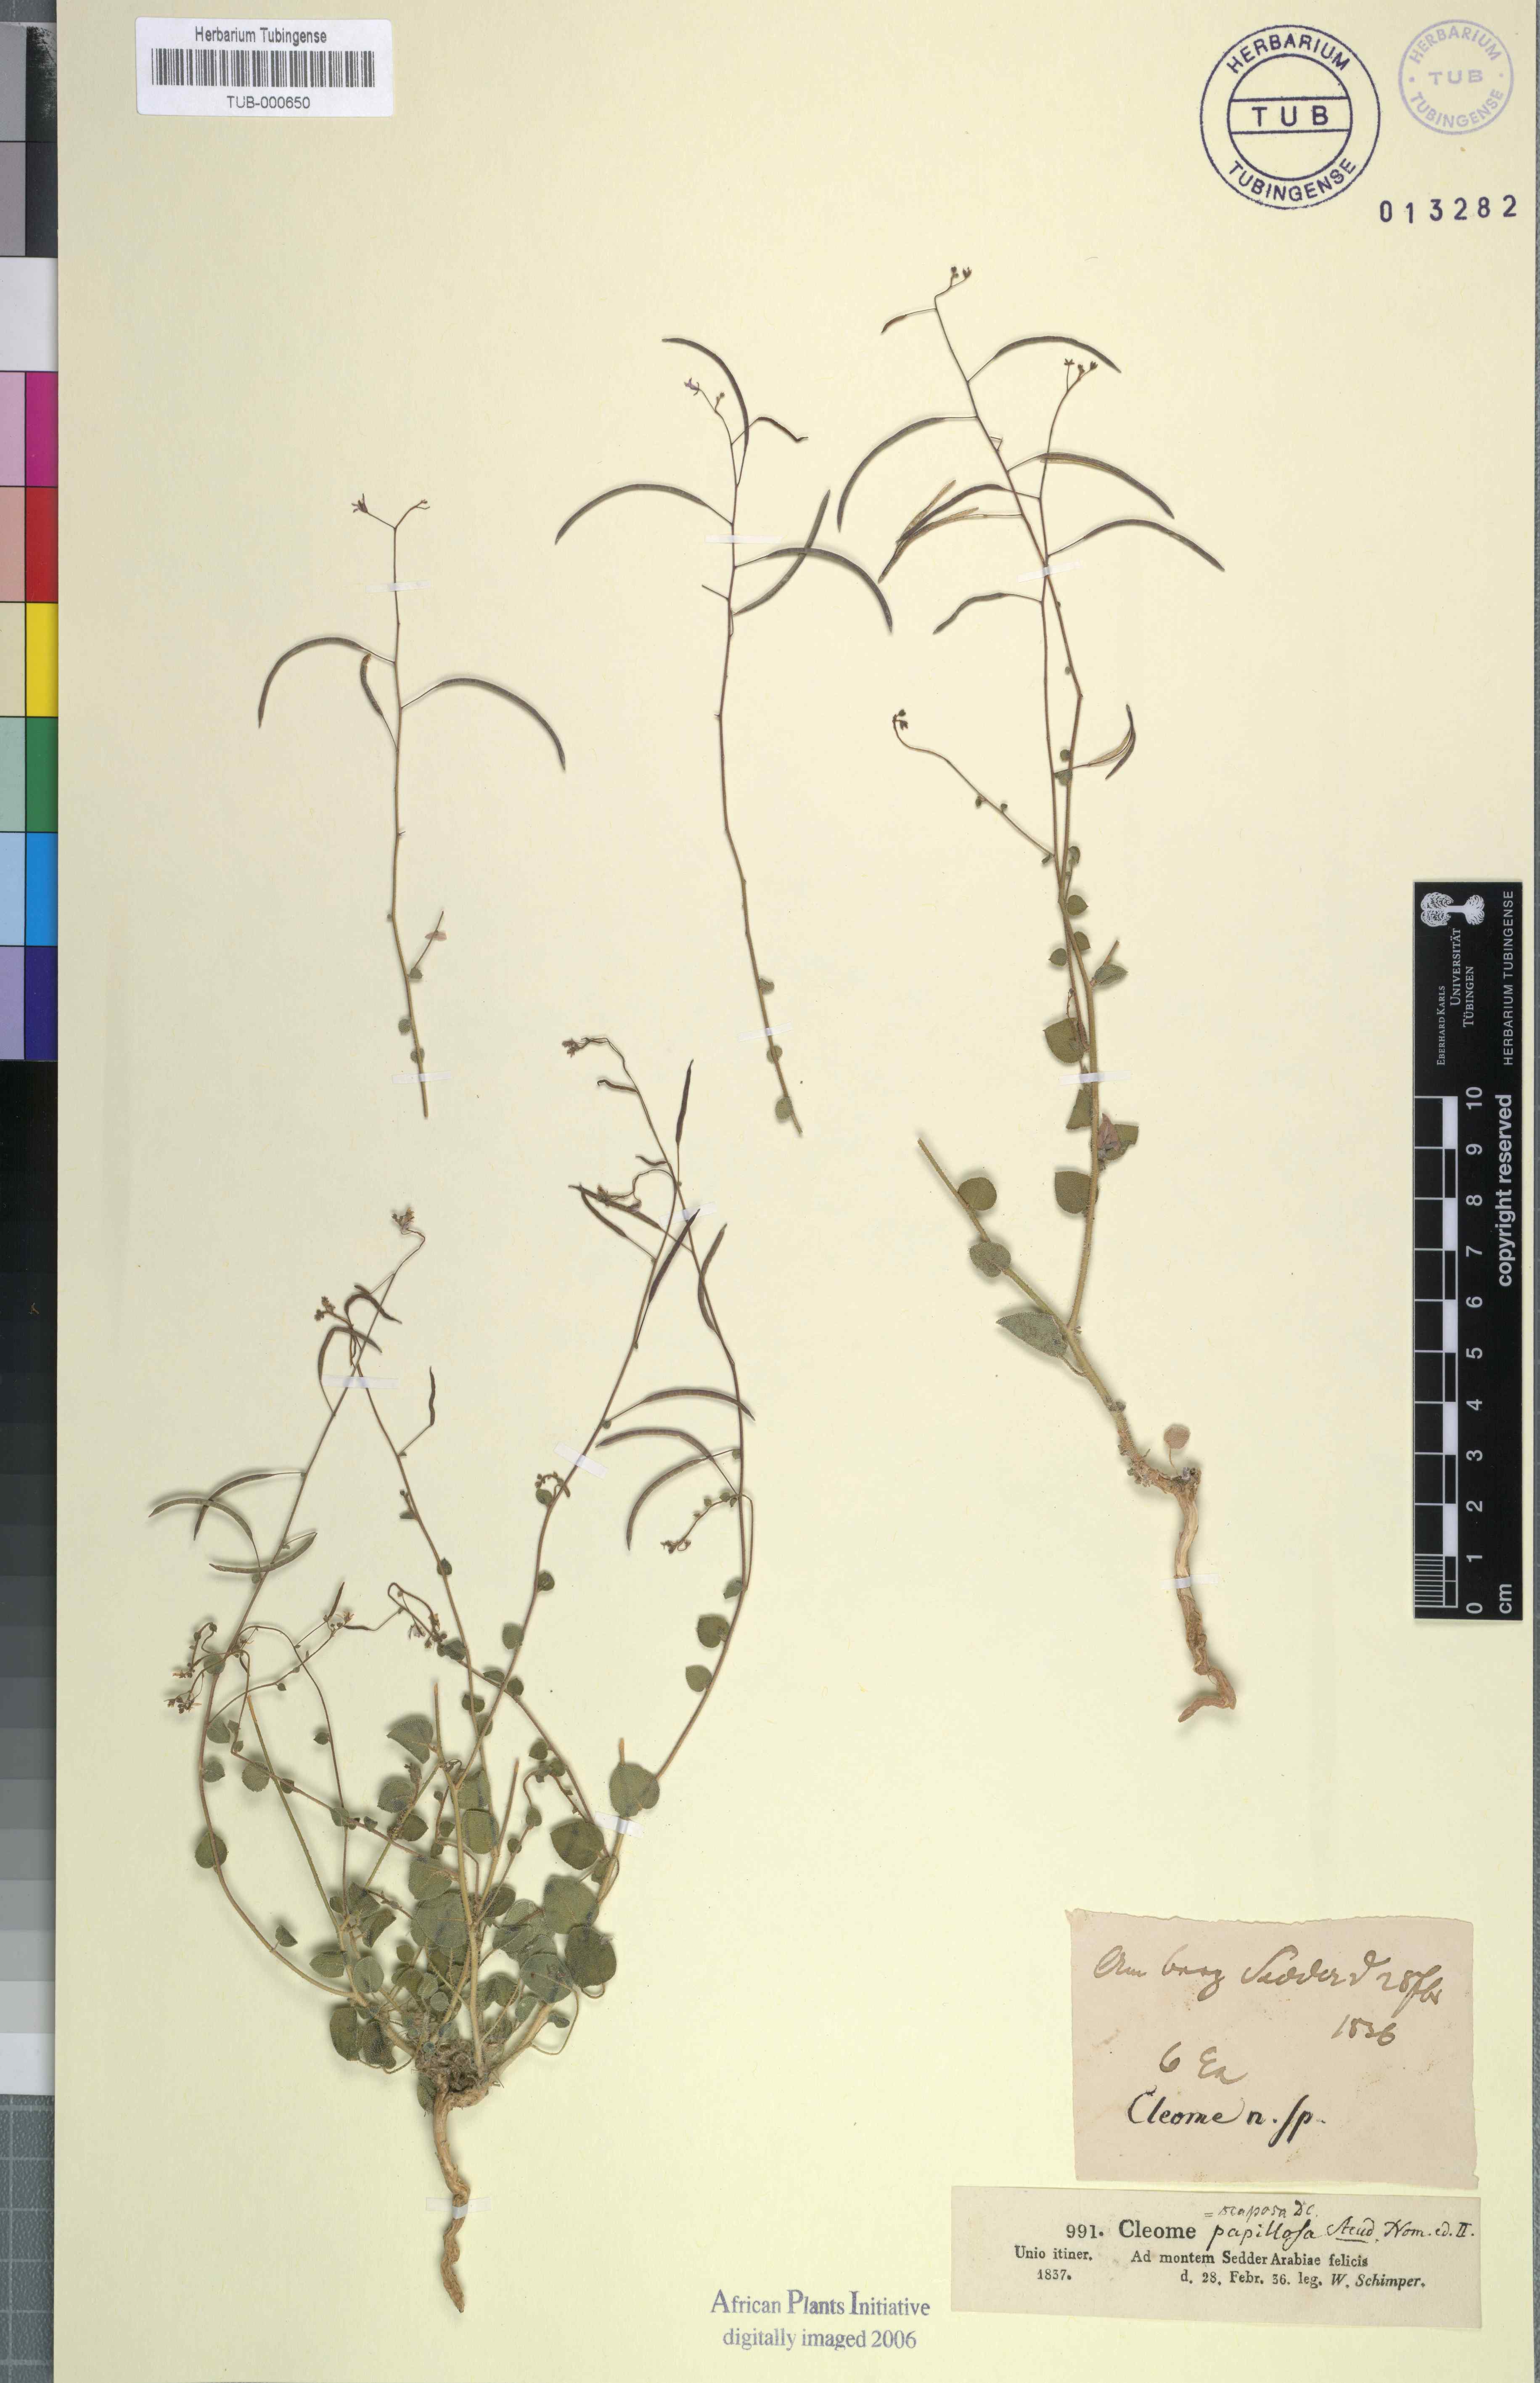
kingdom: Plantae
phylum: Tracheophyta
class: Magnoliopsida
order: Brassicales
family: Cleomaceae
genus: Gilgella
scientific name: Gilgella scaposa
